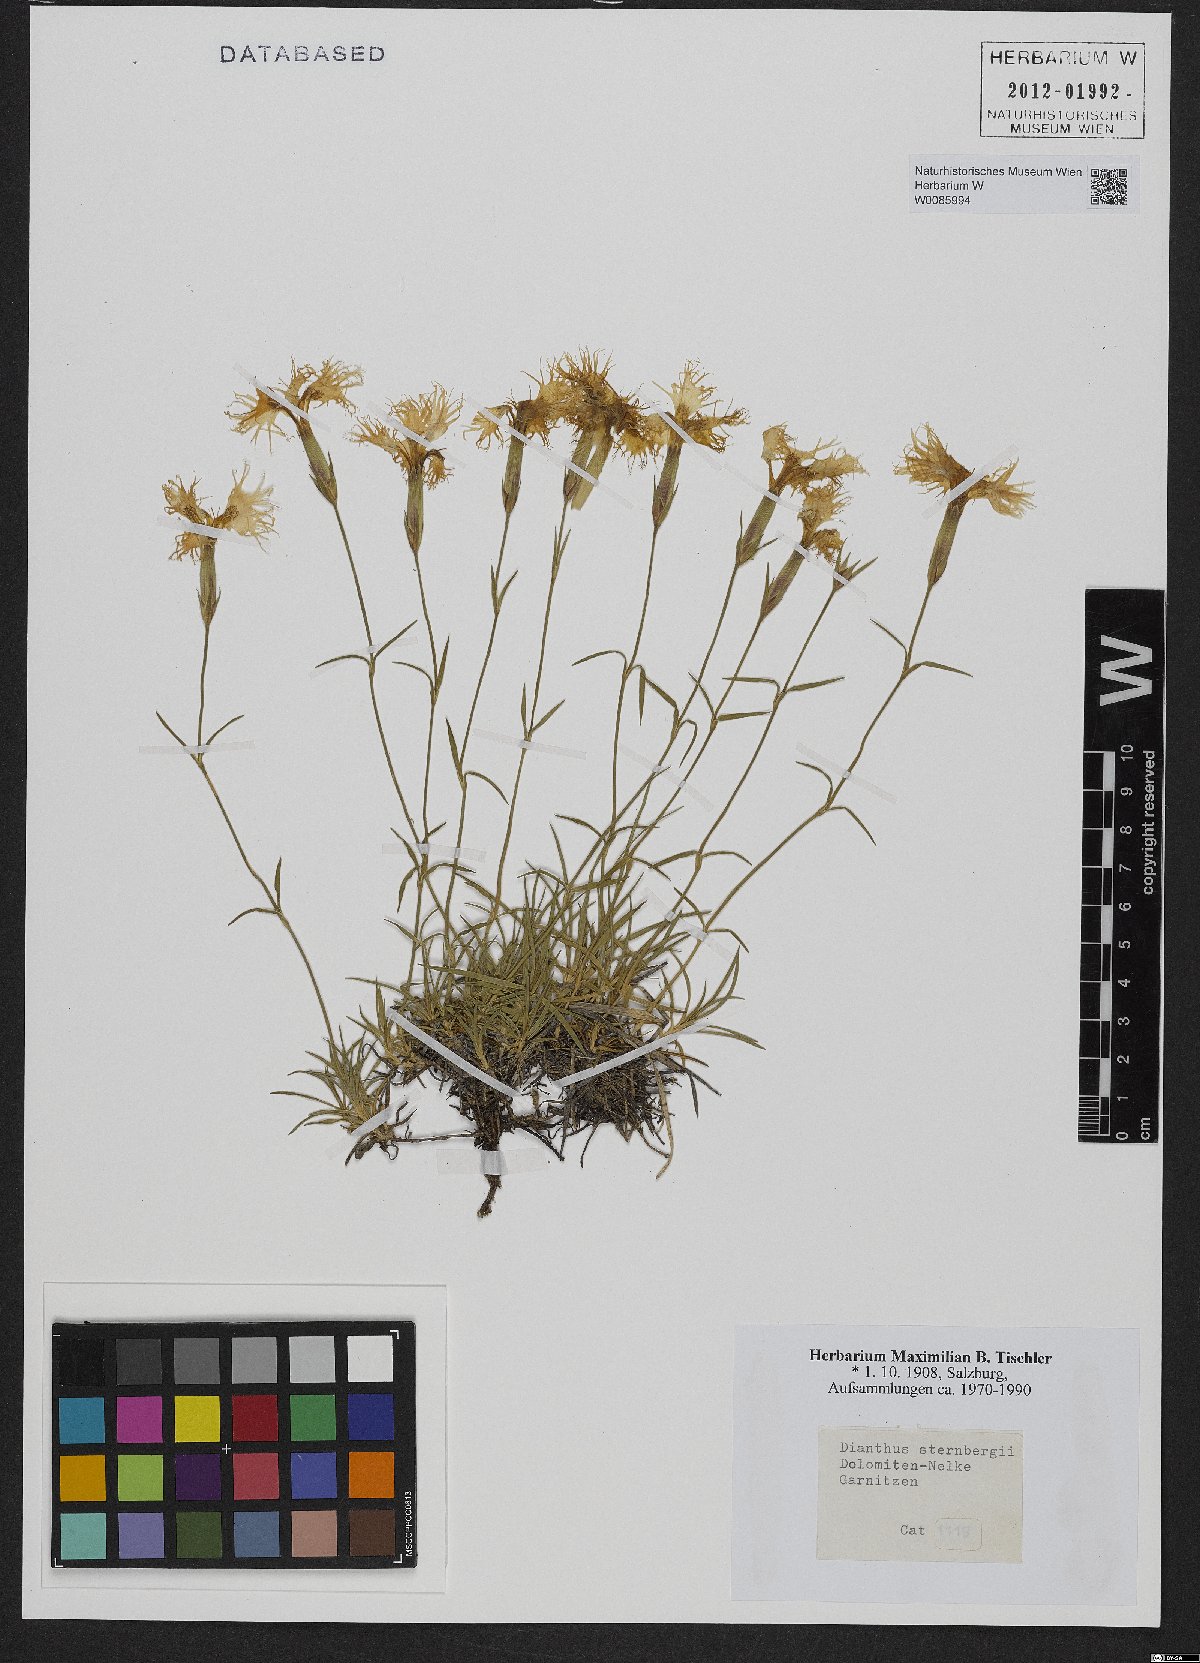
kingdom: Plantae
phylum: Tracheophyta
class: Magnoliopsida
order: Caryophyllales
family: Caryophyllaceae
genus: Dianthus
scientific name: Dianthus sternbergii
